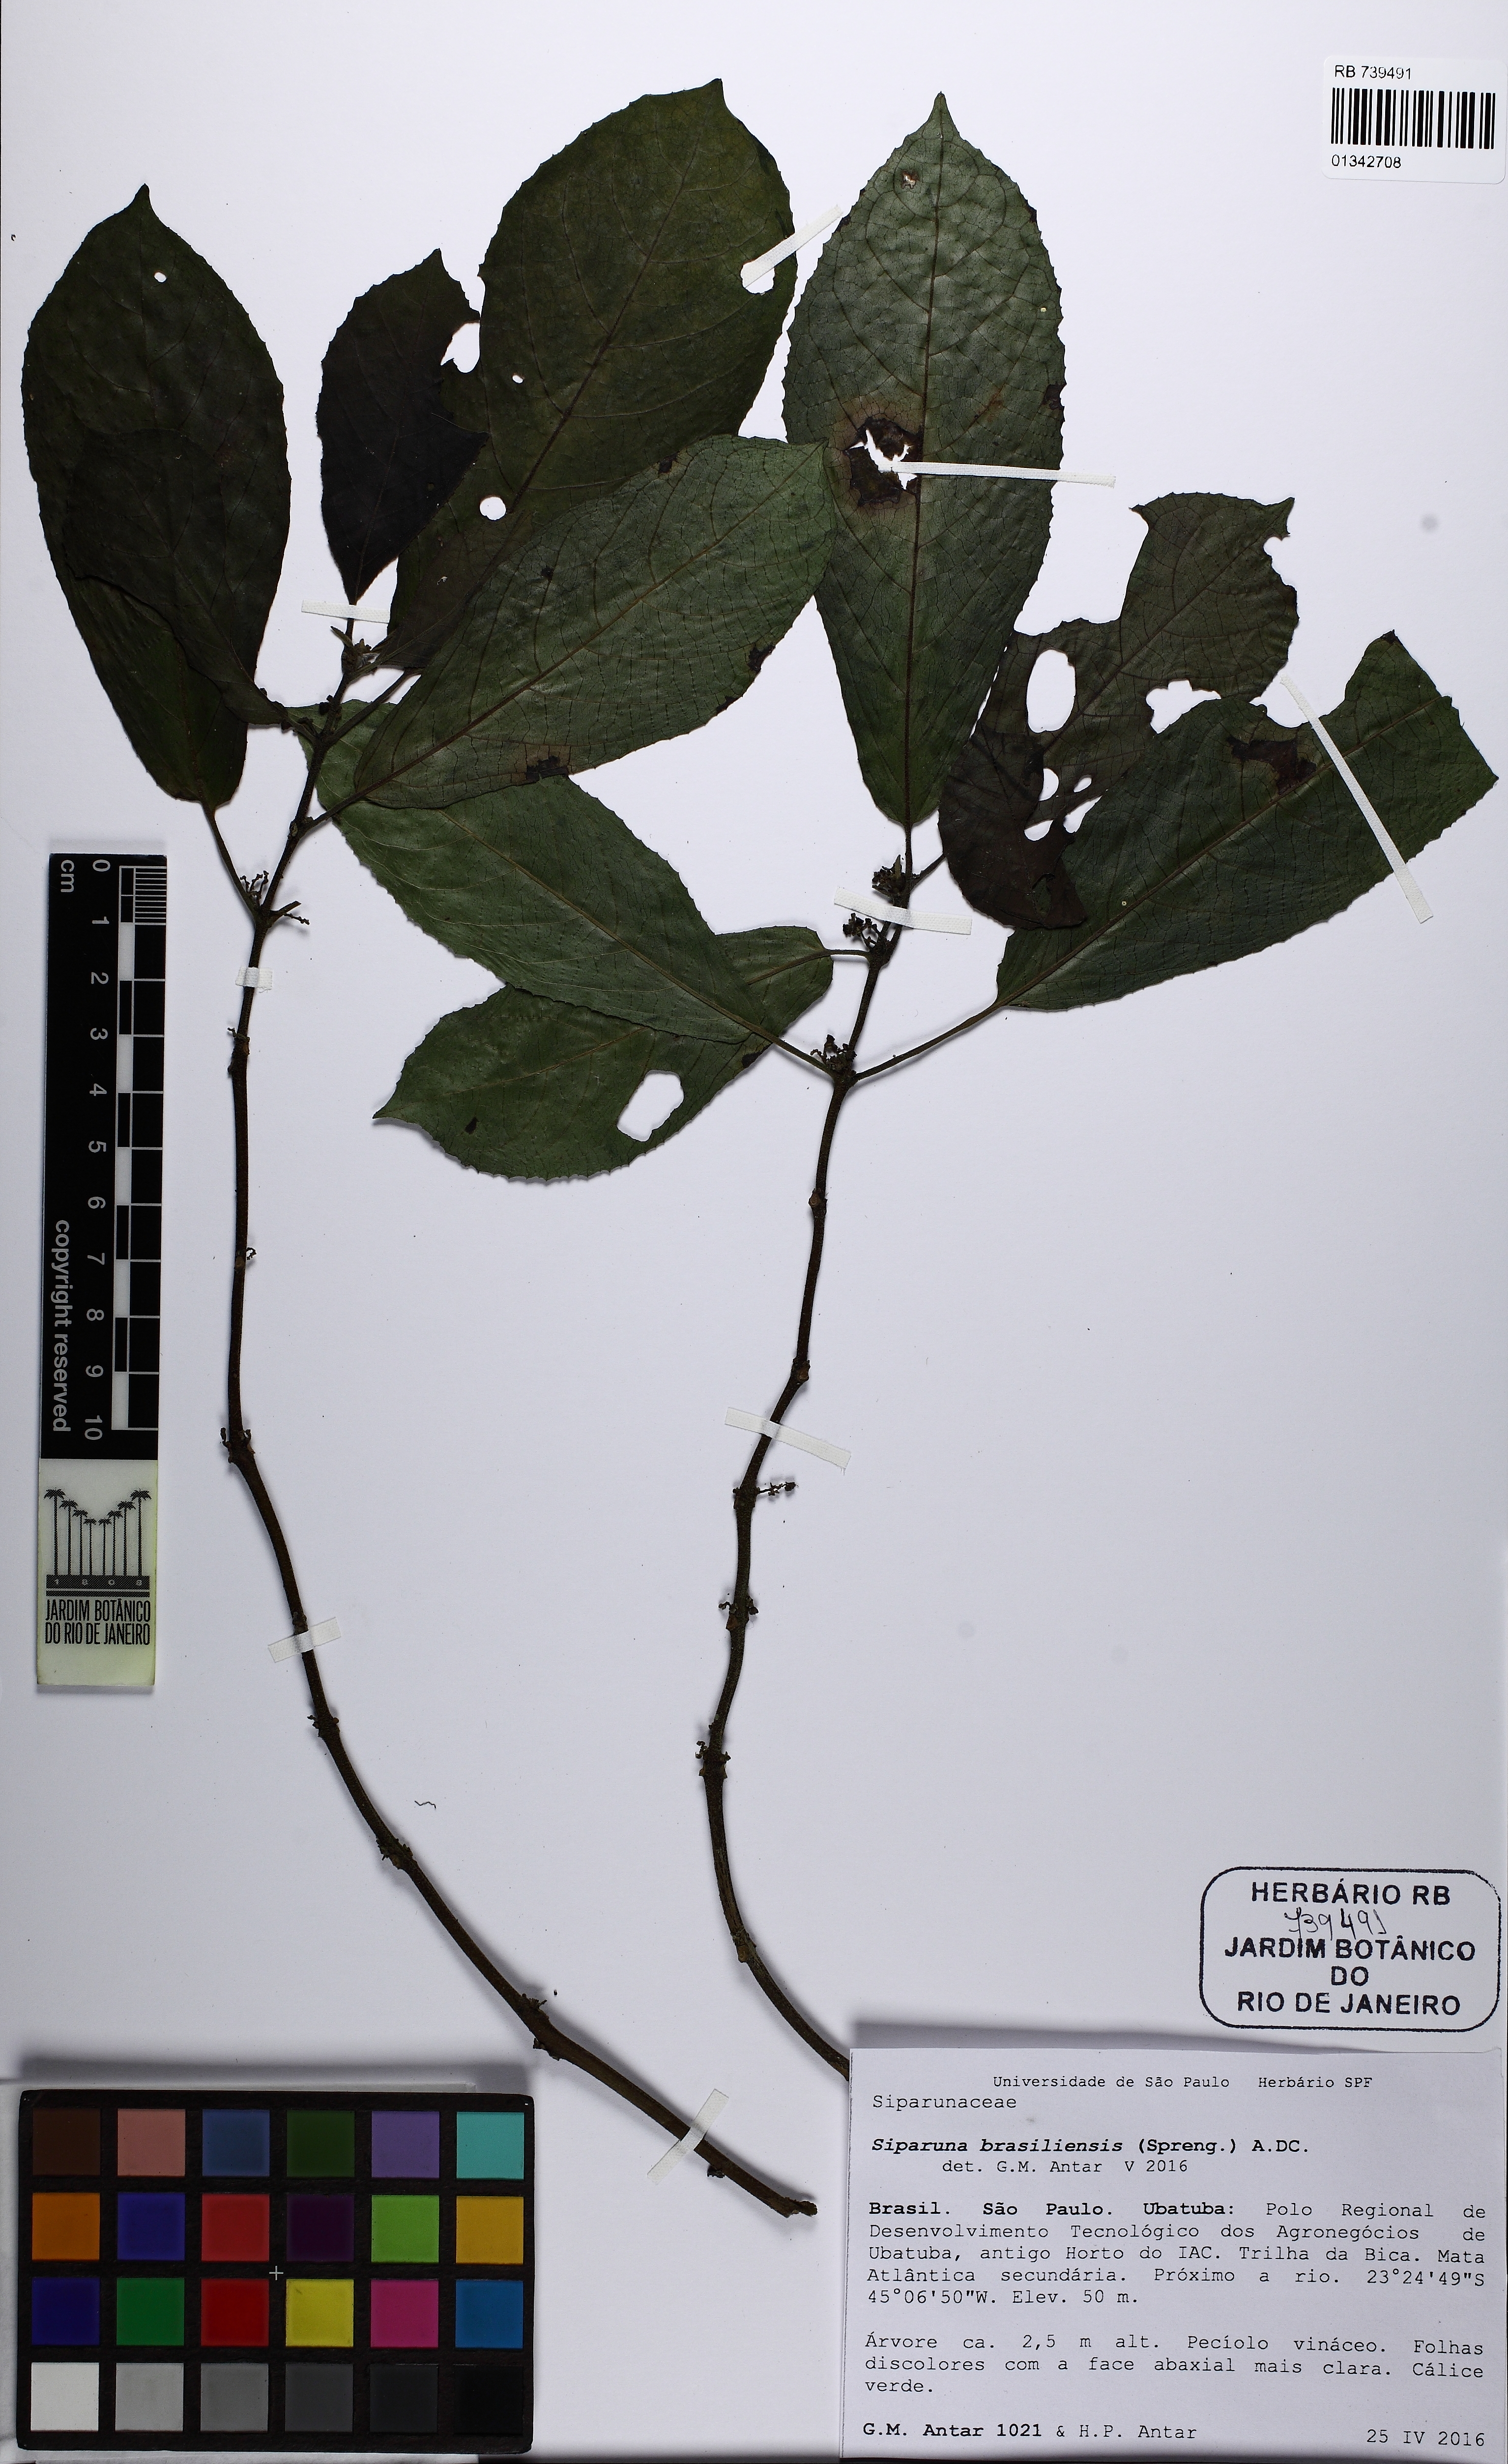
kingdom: Plantae
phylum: Tracheophyta
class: Magnoliopsida
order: Laurales
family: Siparunaceae
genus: Siparuna
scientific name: Siparuna brasiliensis
